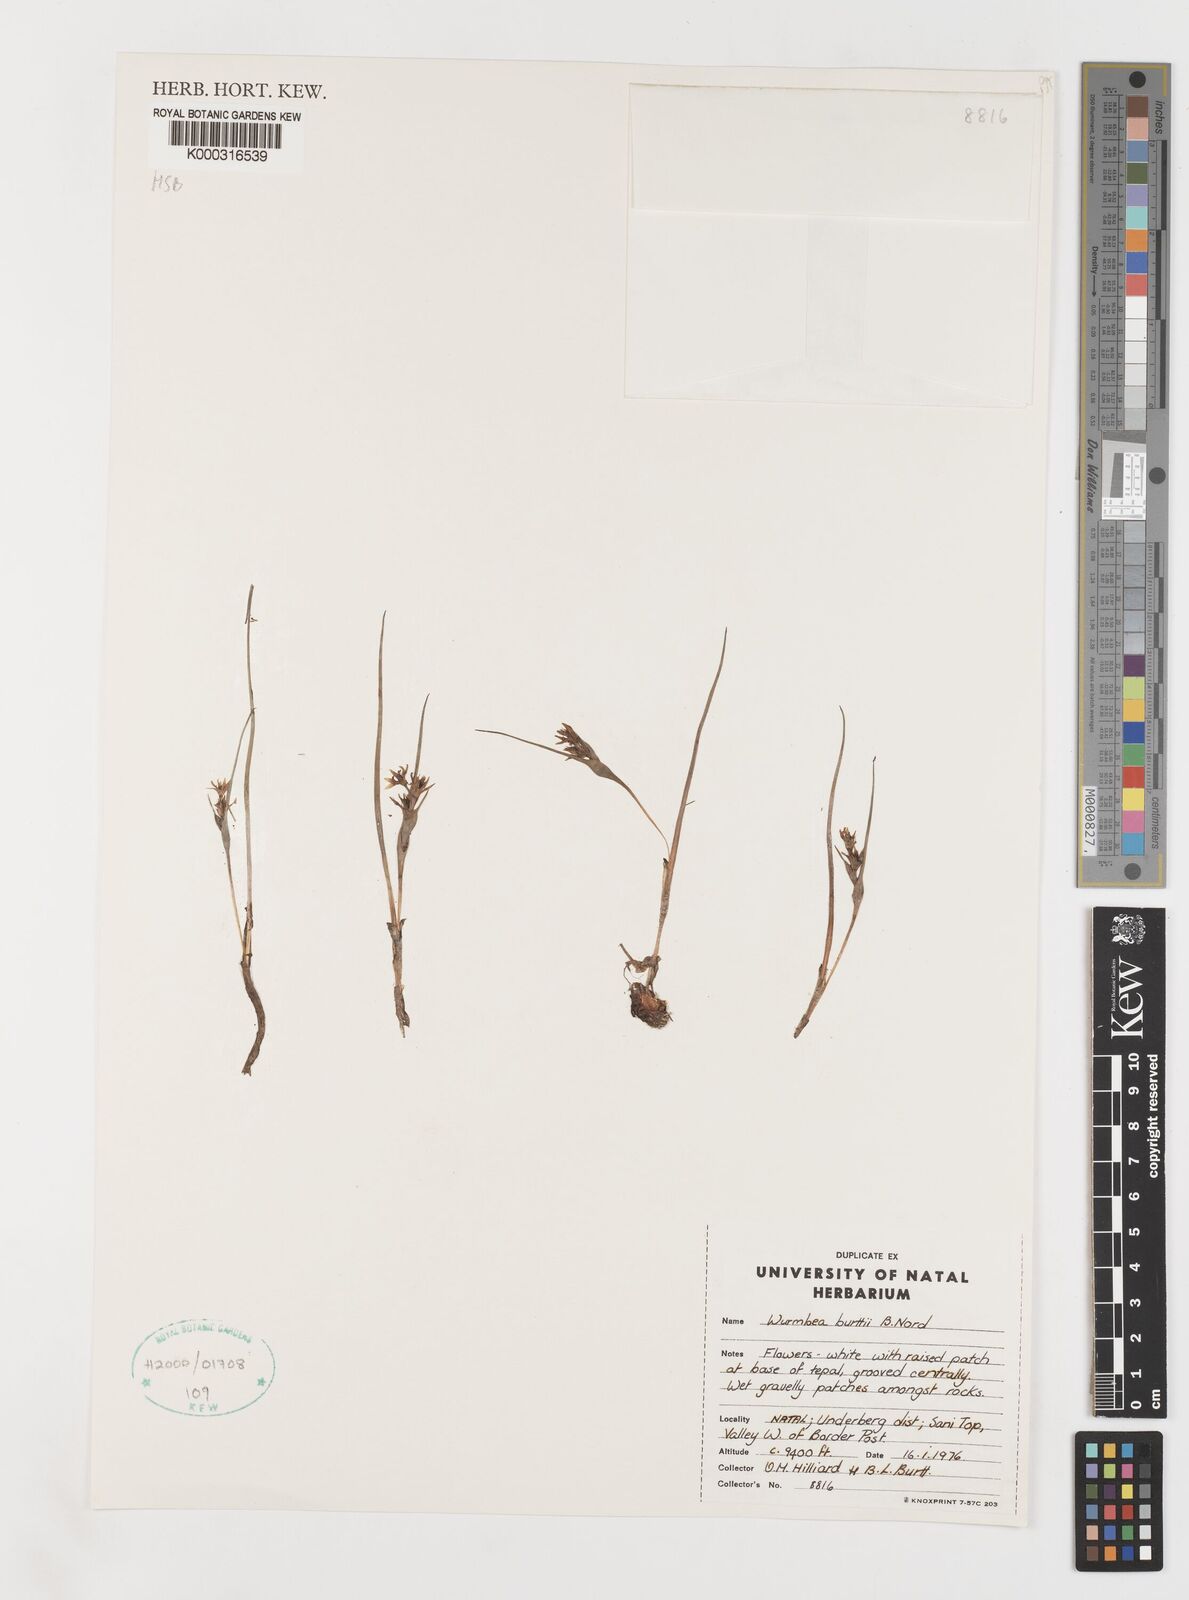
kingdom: Plantae
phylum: Tracheophyta
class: Liliopsida
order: Liliales
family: Colchicaceae
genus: Wurmbea
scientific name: Wurmbea burttii
